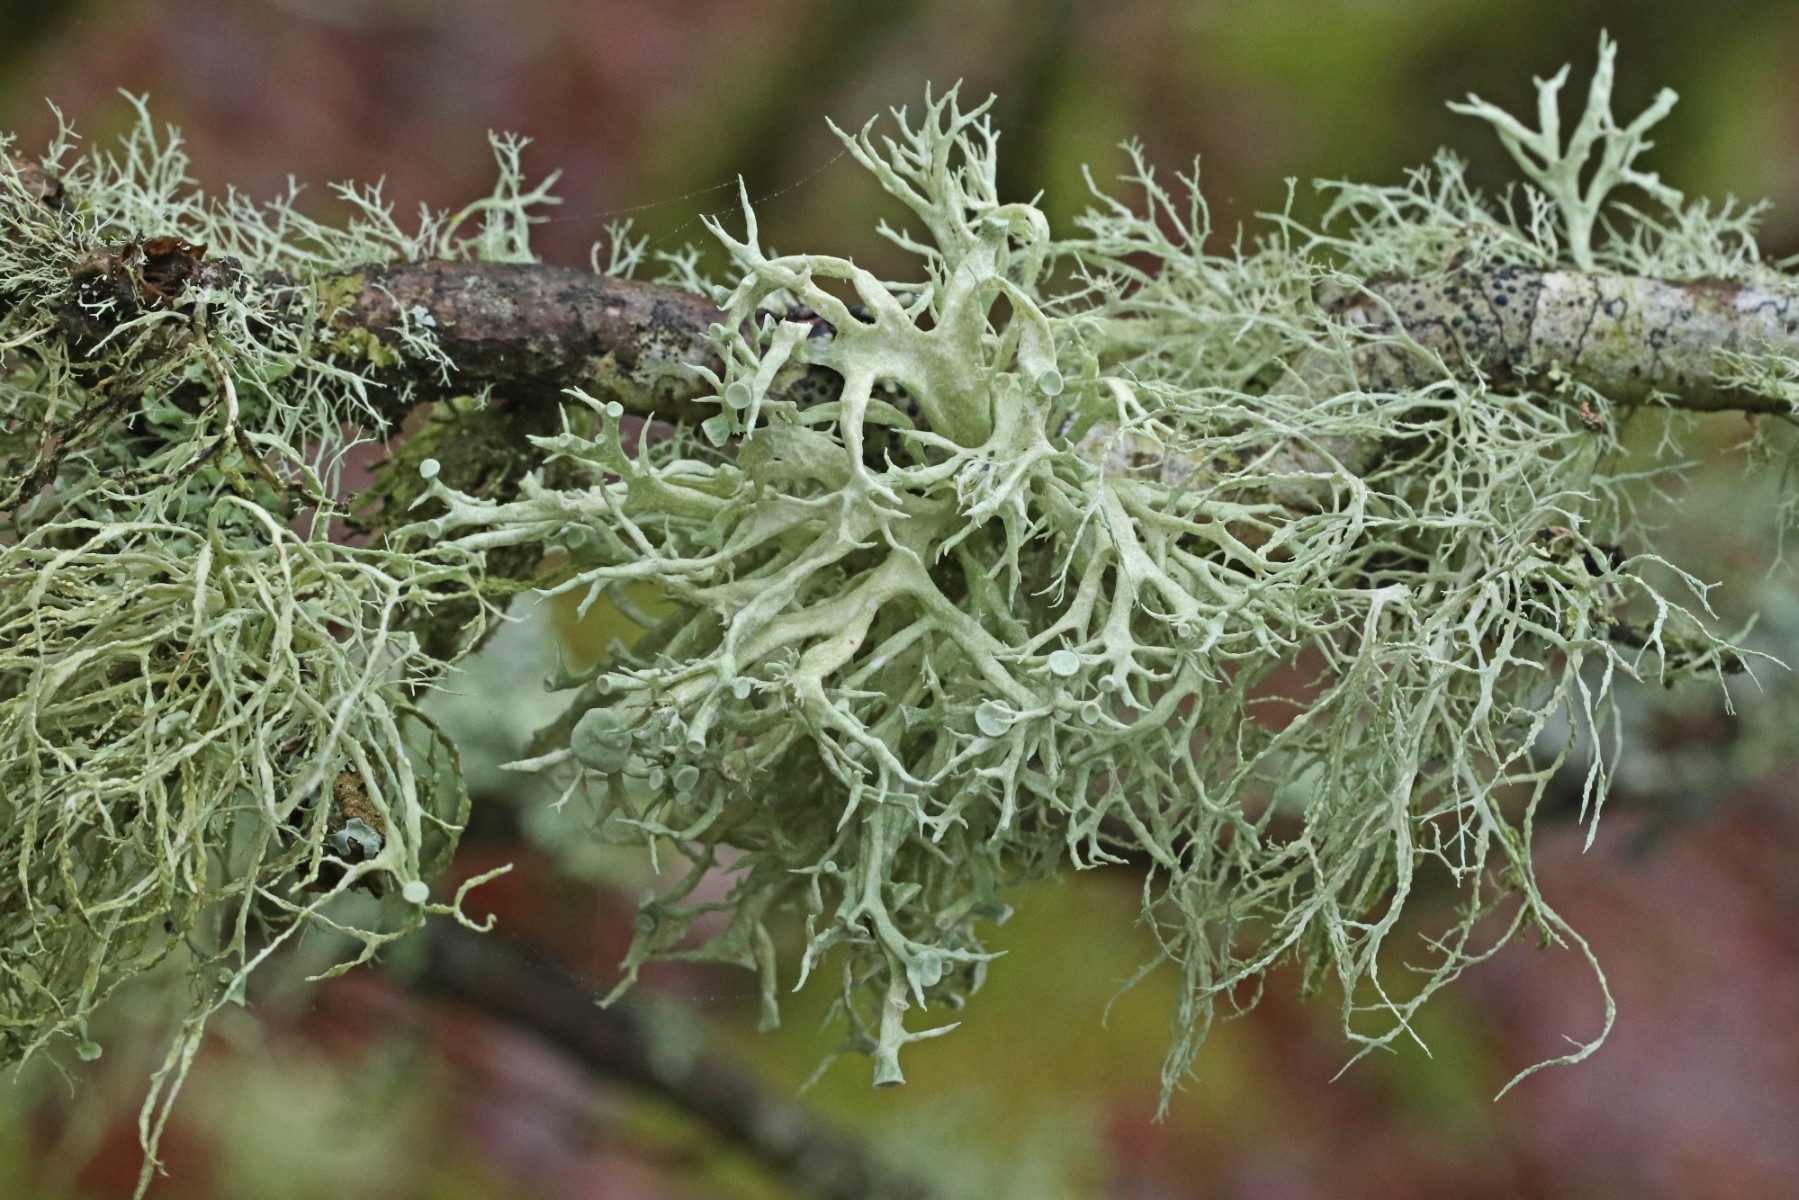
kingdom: Fungi
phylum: Ascomycota
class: Lecanoromycetes
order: Lecanorales
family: Ramalinaceae
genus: Ramalina
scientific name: Ramalina fastigiata
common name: tue-grenlav
